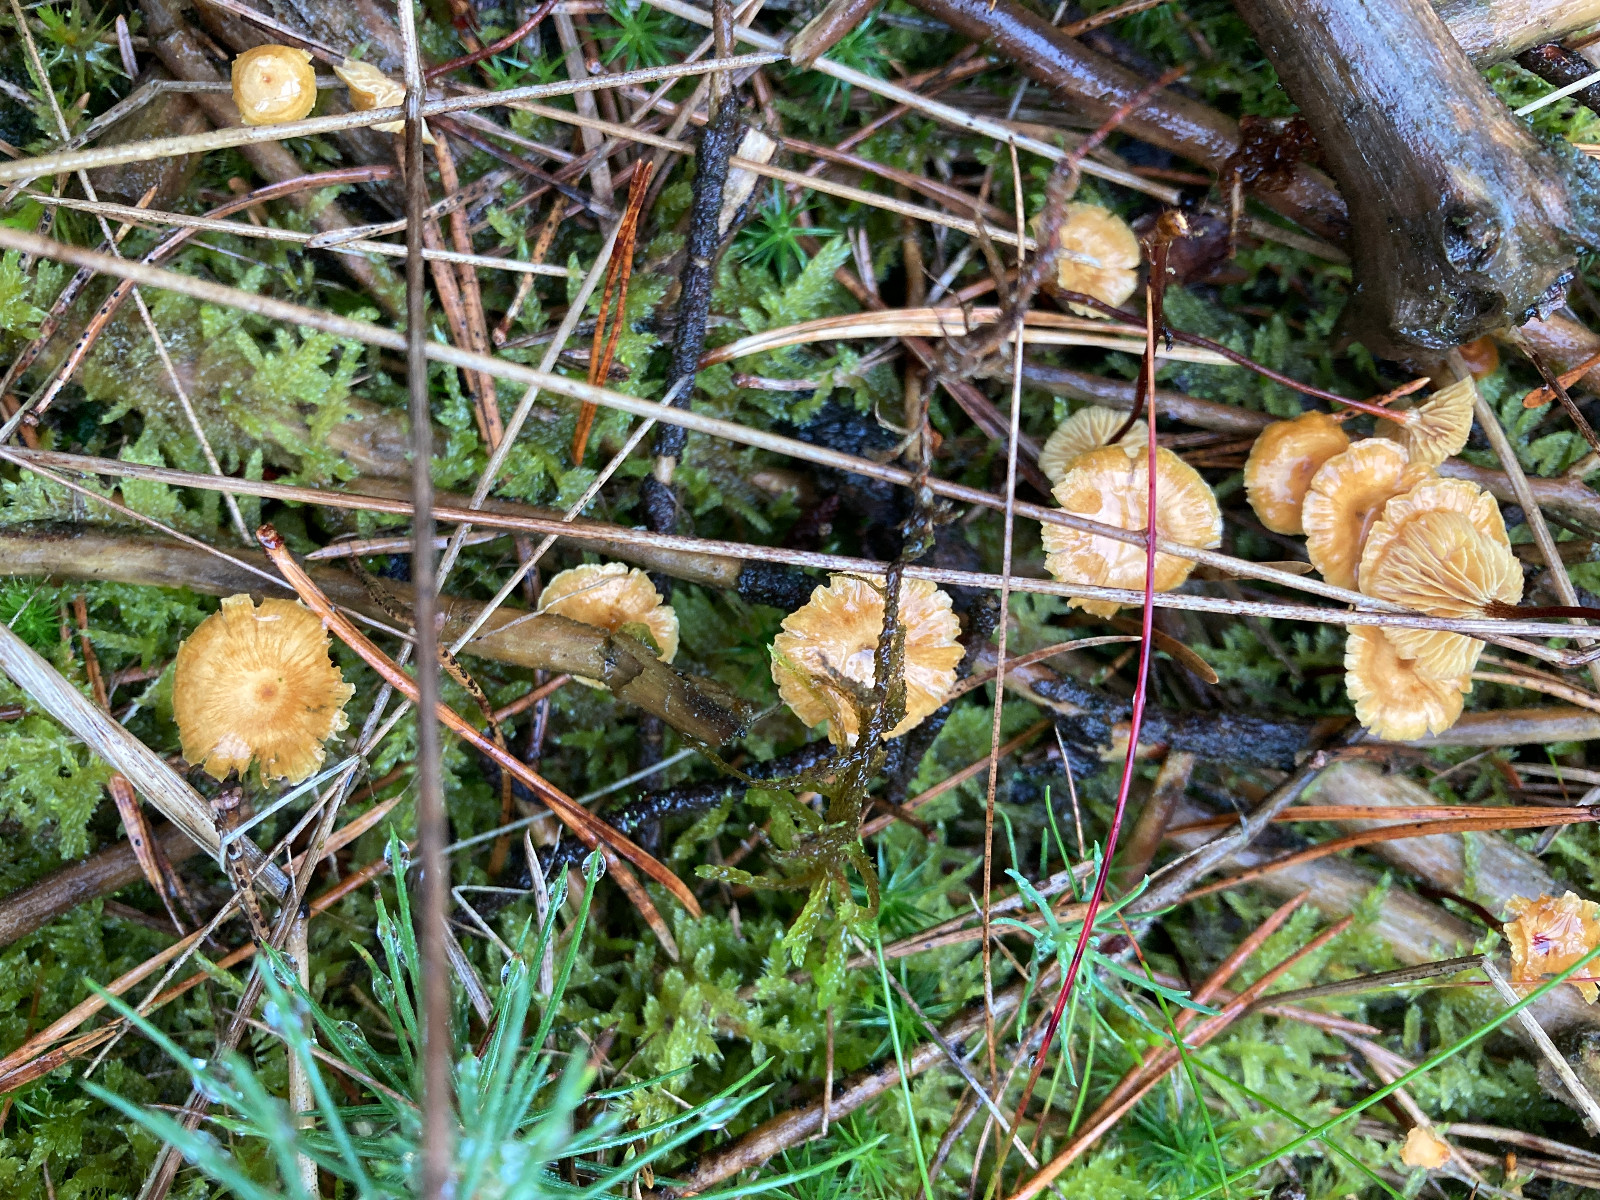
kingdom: Fungi
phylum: Basidiomycota
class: Agaricomycetes
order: Agaricales
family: Mycenaceae
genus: Xeromphalina
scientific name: Xeromphalina cauticinalis
